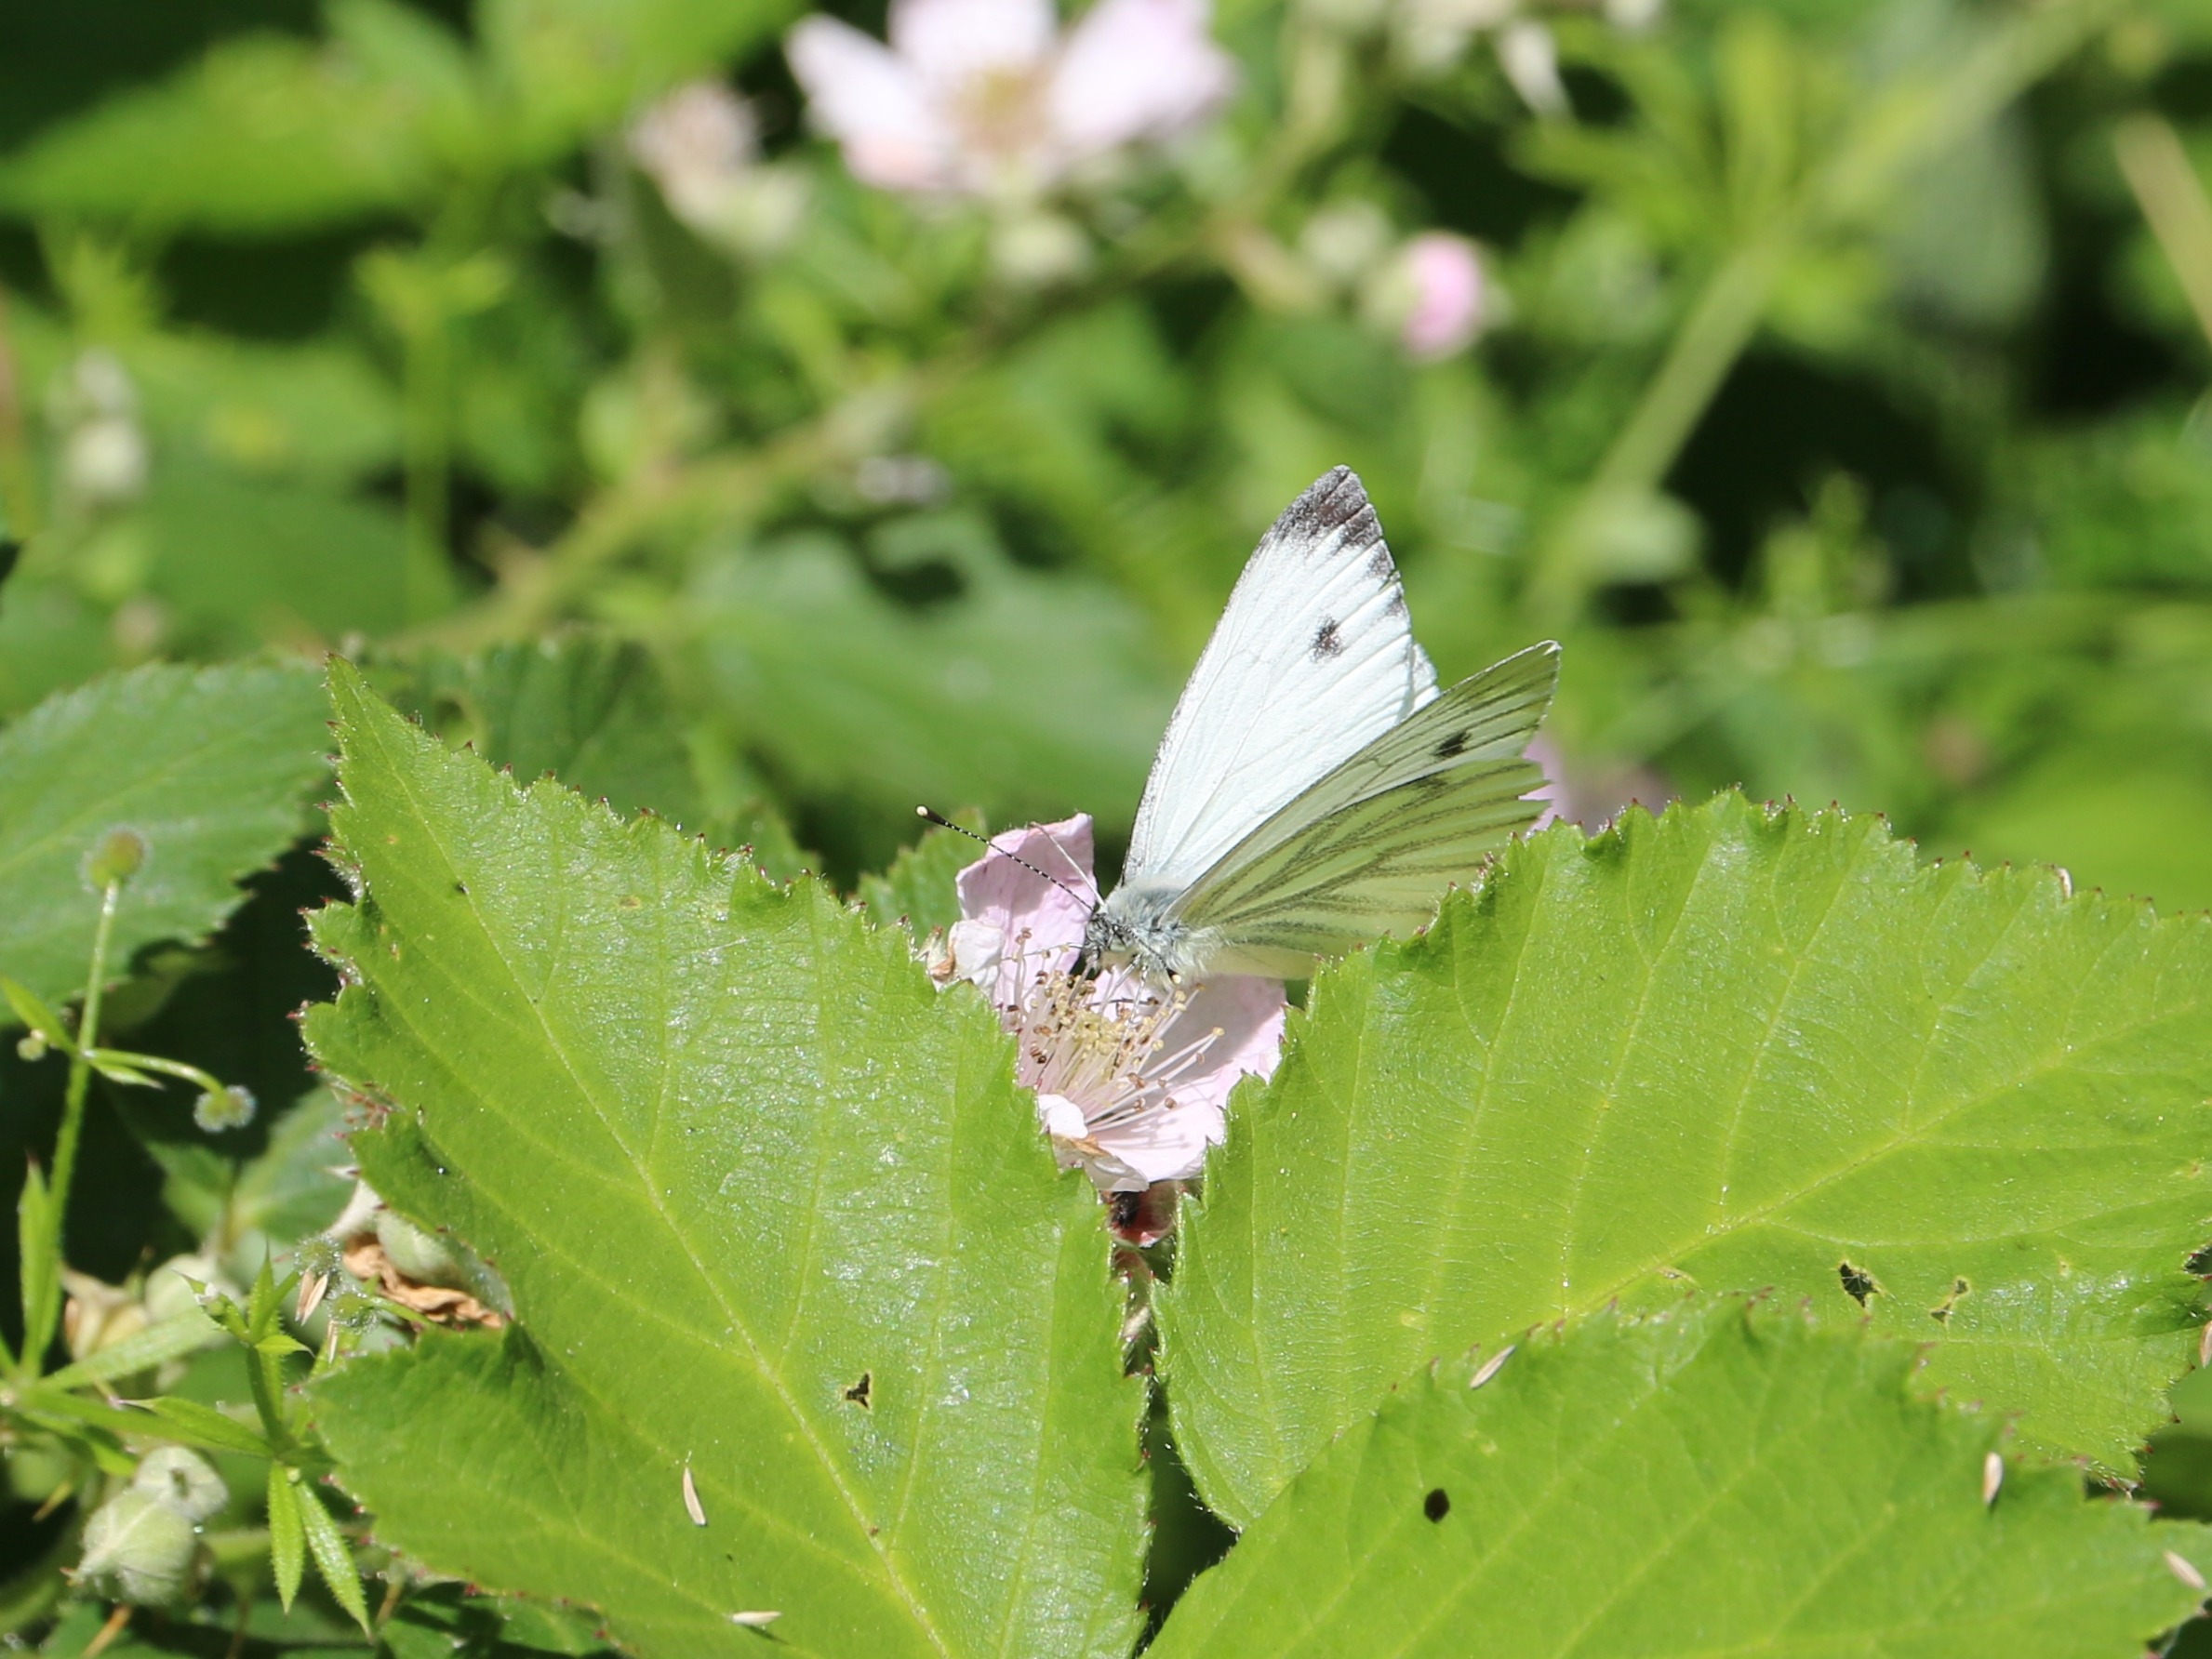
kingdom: Animalia
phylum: Arthropoda
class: Insecta
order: Lepidoptera
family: Pieridae
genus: Pieris
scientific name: Pieris napi
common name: Grønåret kålsommerfugl
